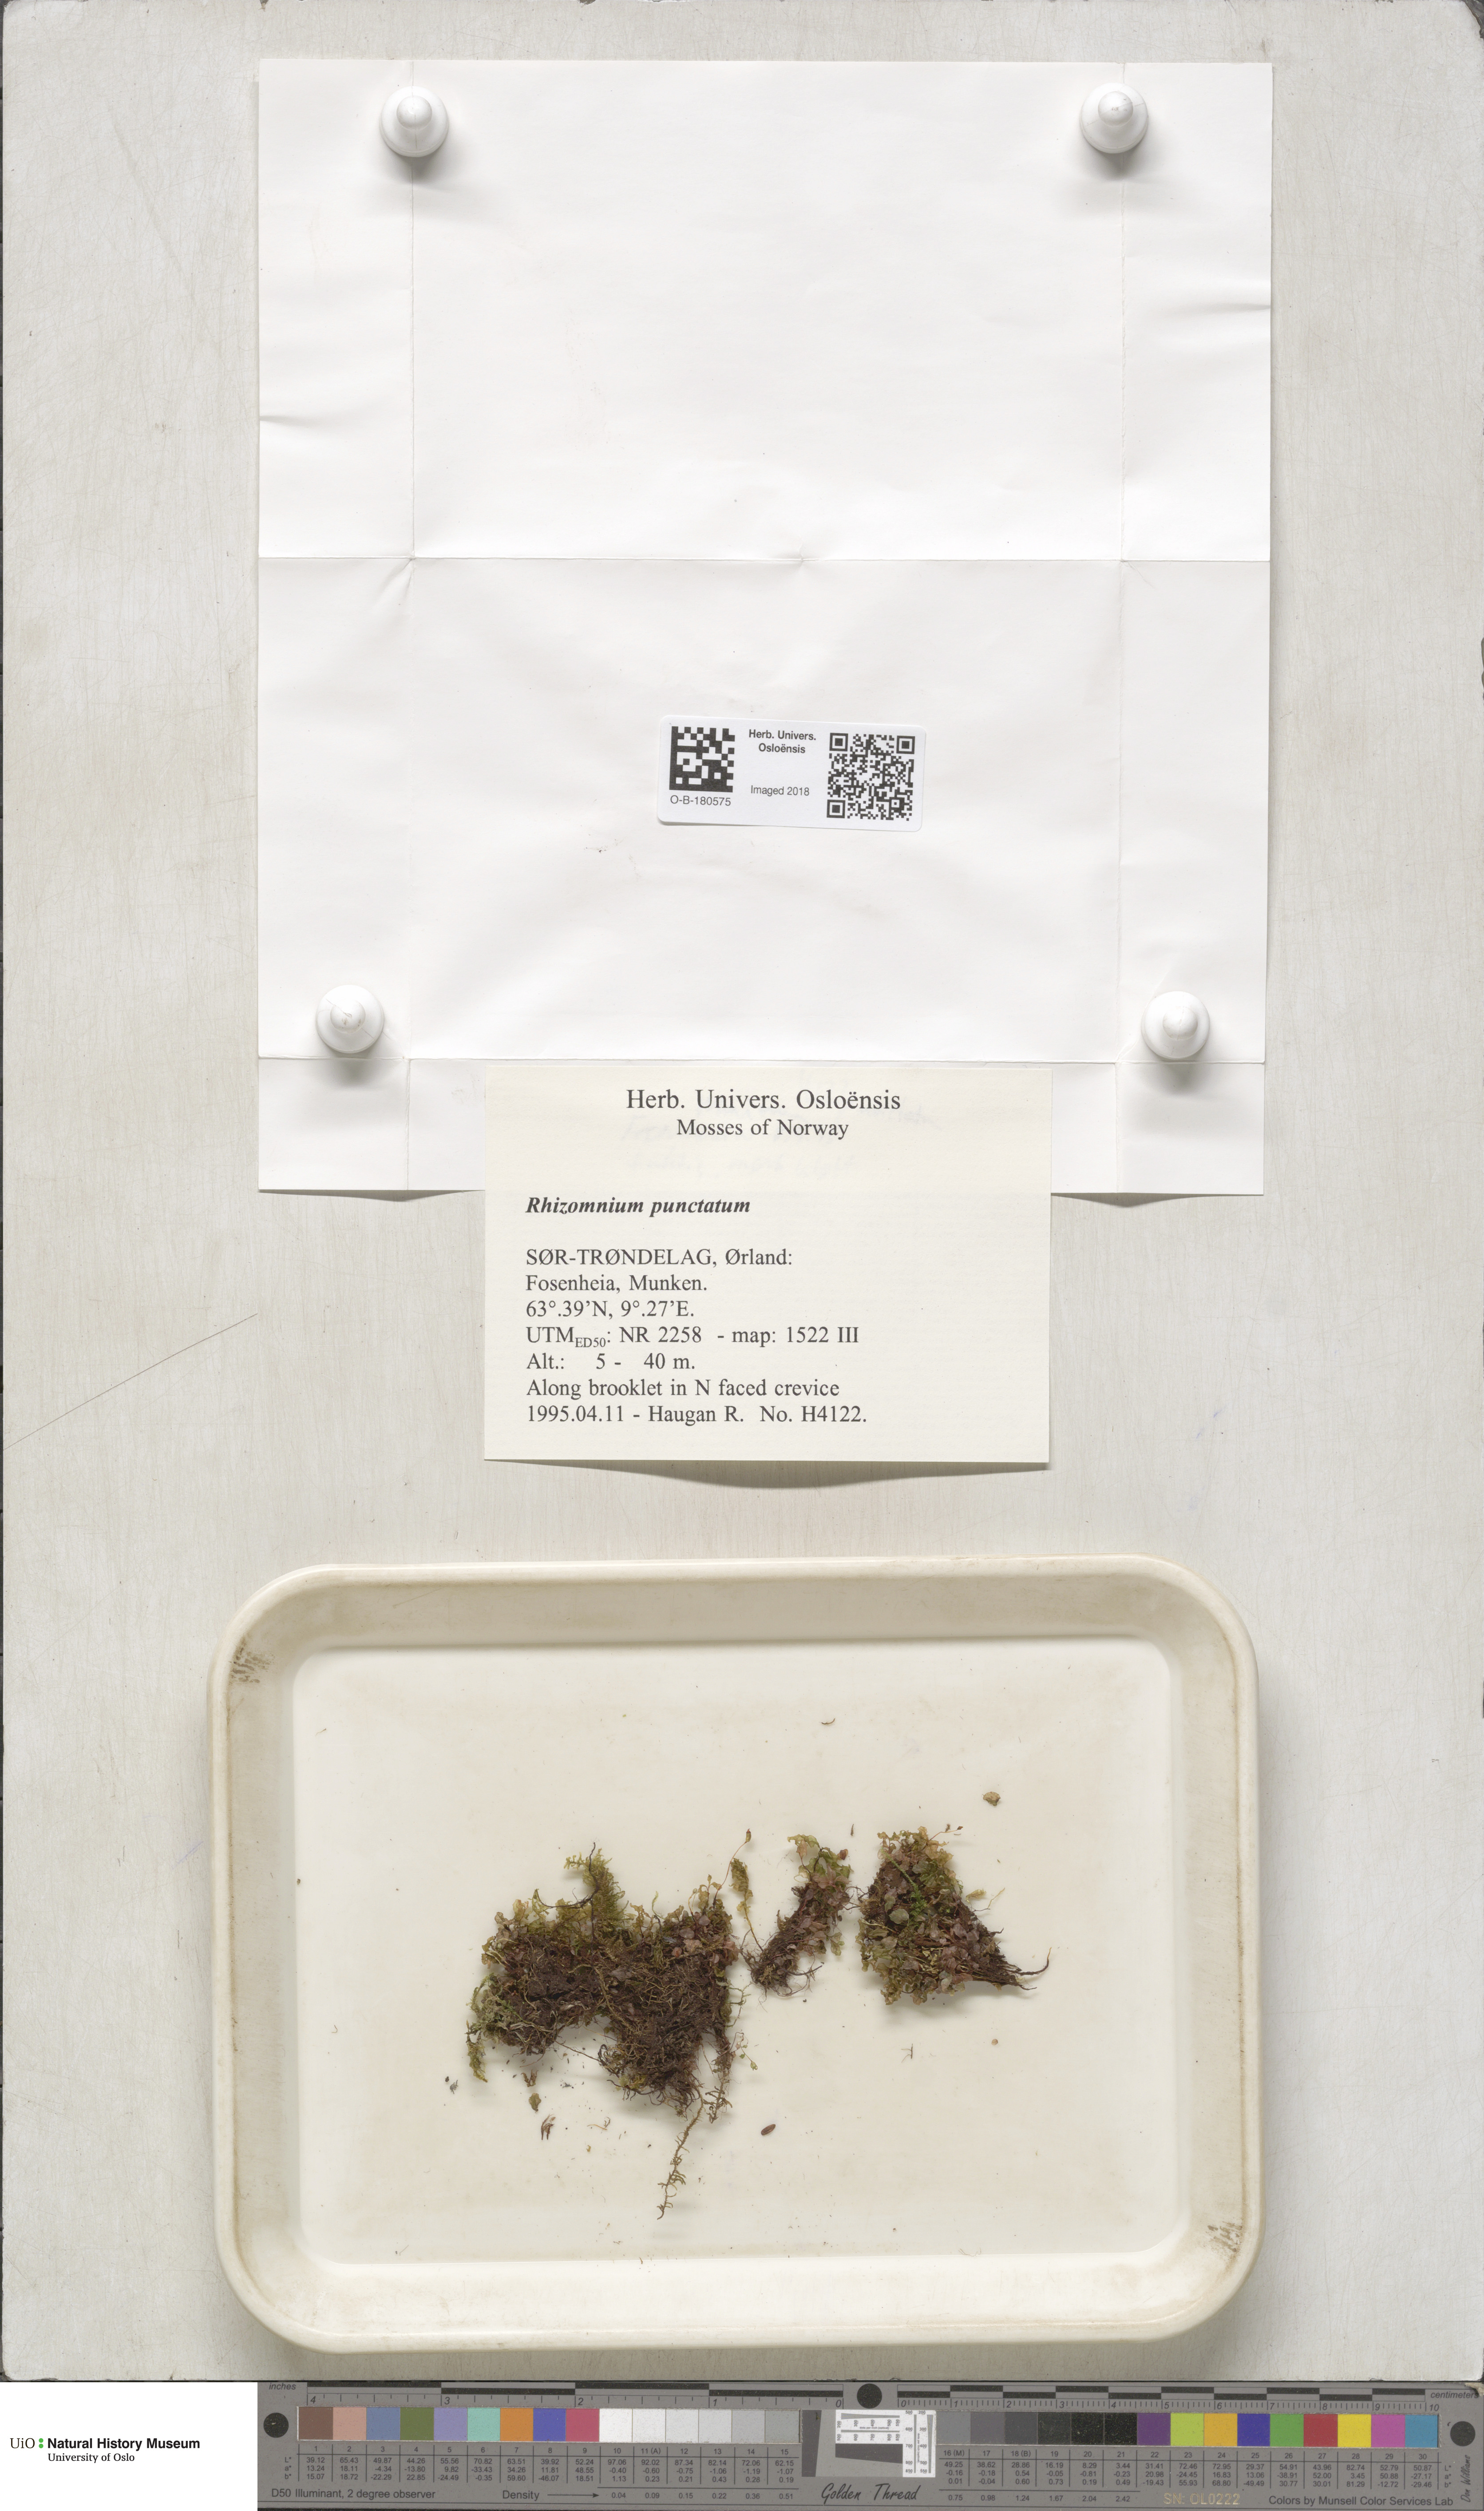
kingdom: Plantae
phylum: Bryophyta
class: Bryopsida
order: Bryales
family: Mniaceae
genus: Rhizomnium
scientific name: Rhizomnium punctatum
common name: Dotted leafy moss
